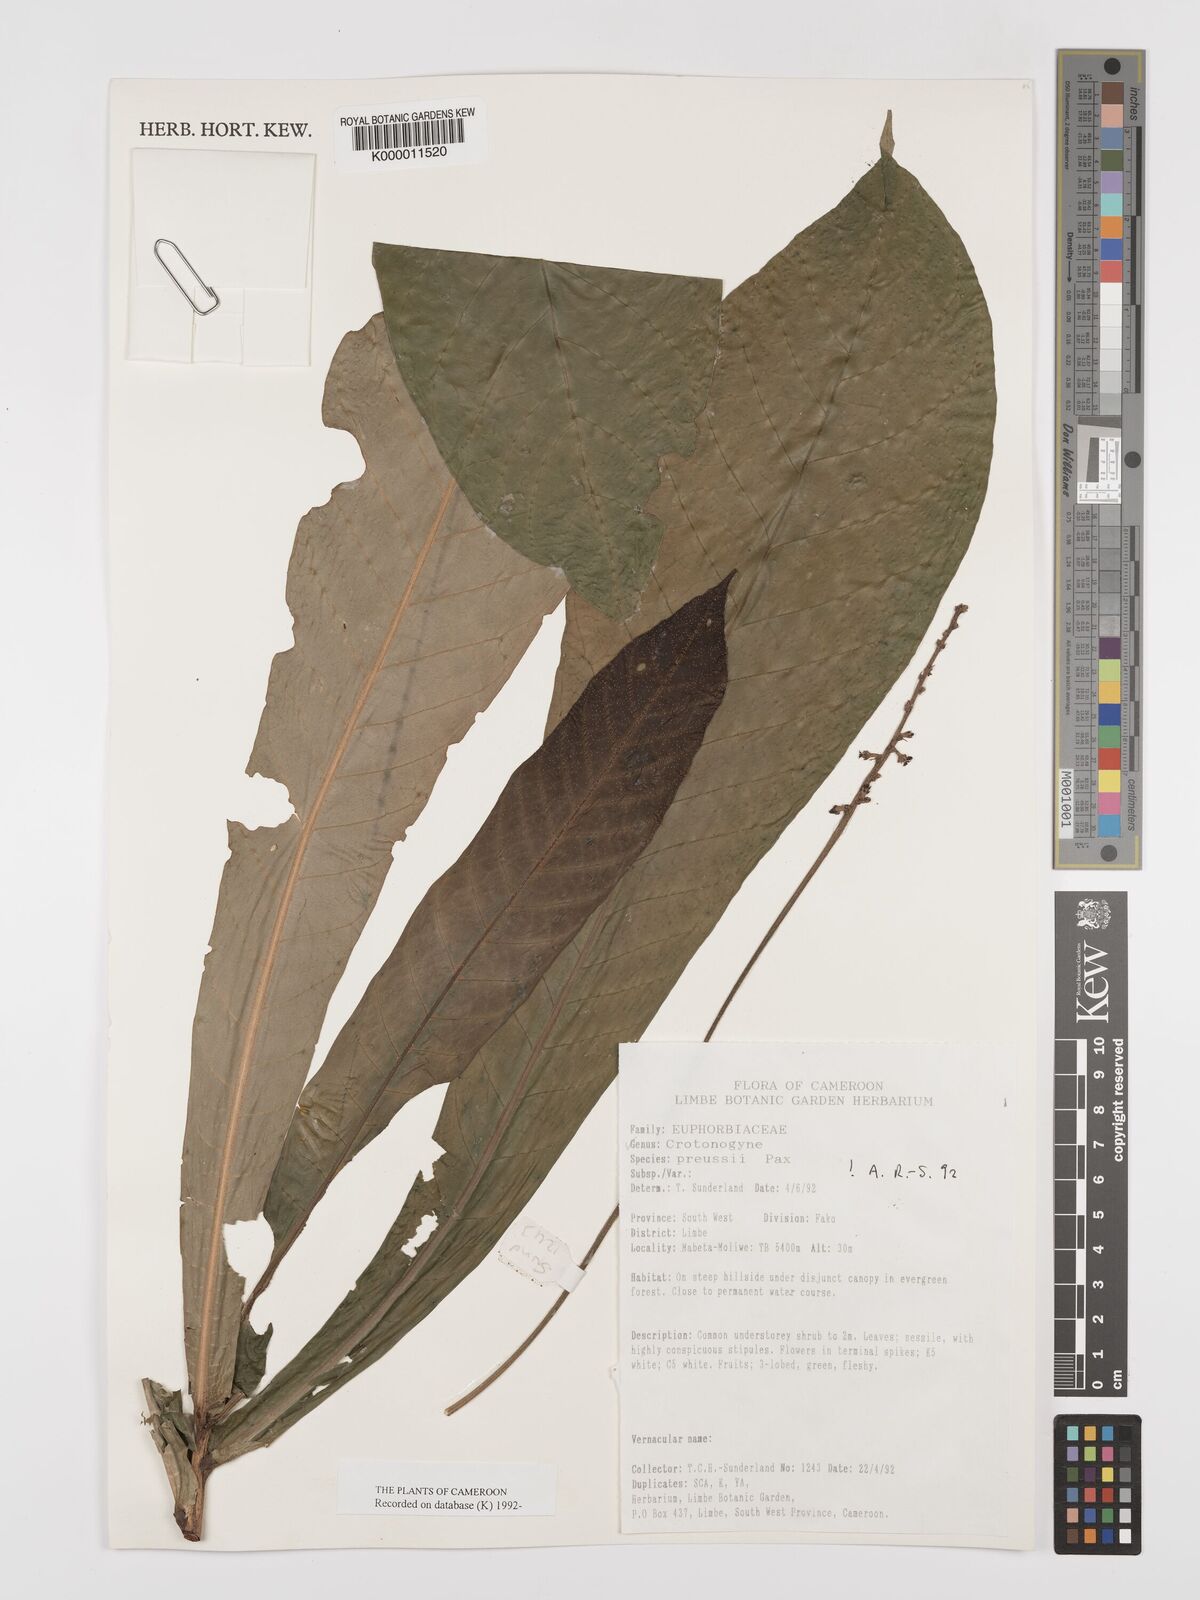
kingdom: Plantae
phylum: Tracheophyta
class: Magnoliopsida
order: Malpighiales
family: Euphorbiaceae
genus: Crotonogyne
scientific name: Crotonogyne preussii
